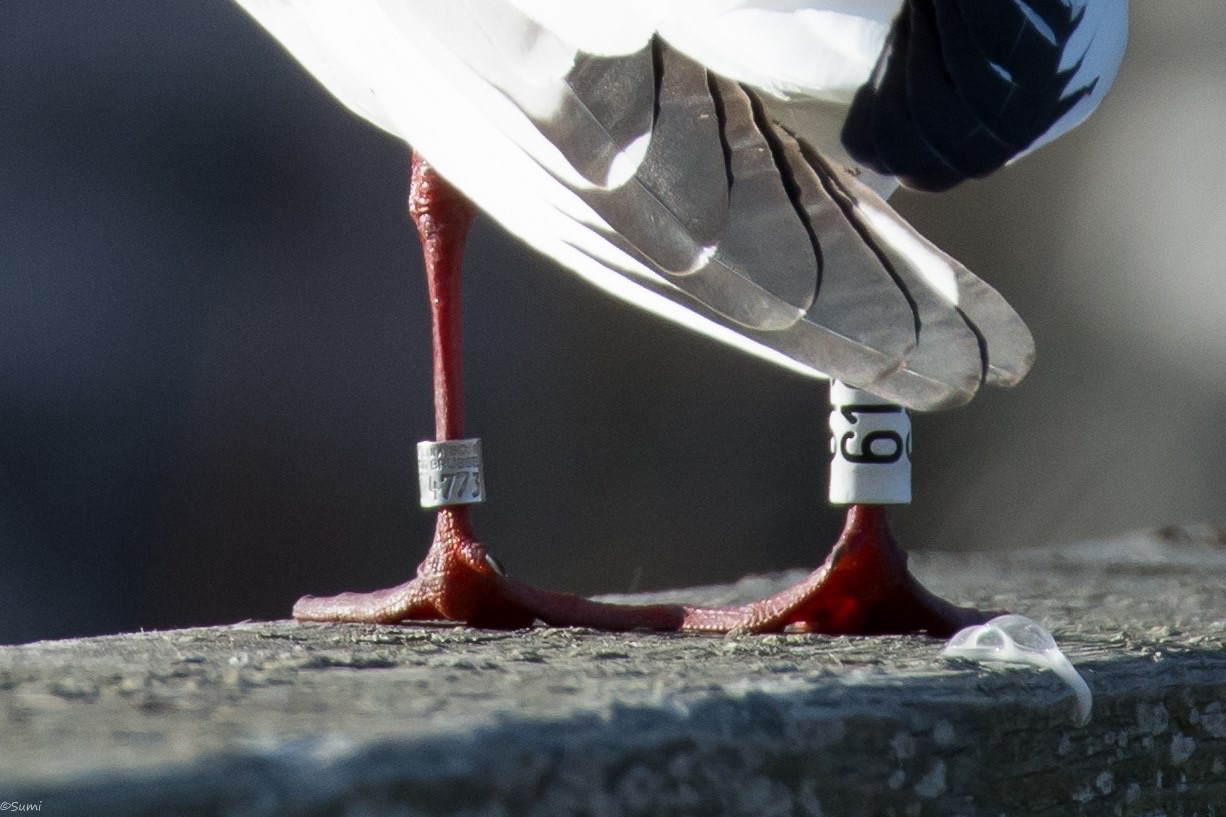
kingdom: Animalia
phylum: Chordata
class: Aves
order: Charadriiformes
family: Laridae
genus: Chroicocephalus
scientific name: Chroicocephalus ridibundus
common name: Black-headed gull
